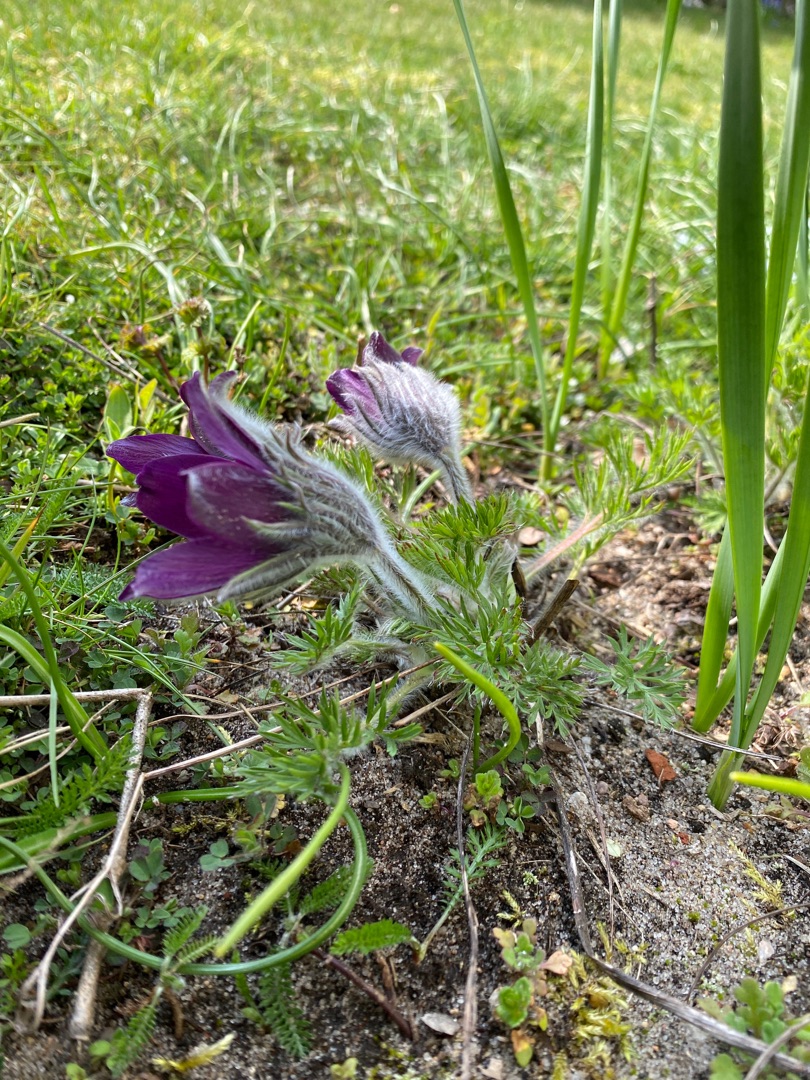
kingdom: Plantae
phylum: Tracheophyta
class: Magnoliopsida
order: Ranunculales
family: Ranunculaceae
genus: Pulsatilla
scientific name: Pulsatilla vulgaris
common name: Opret kobjælde
